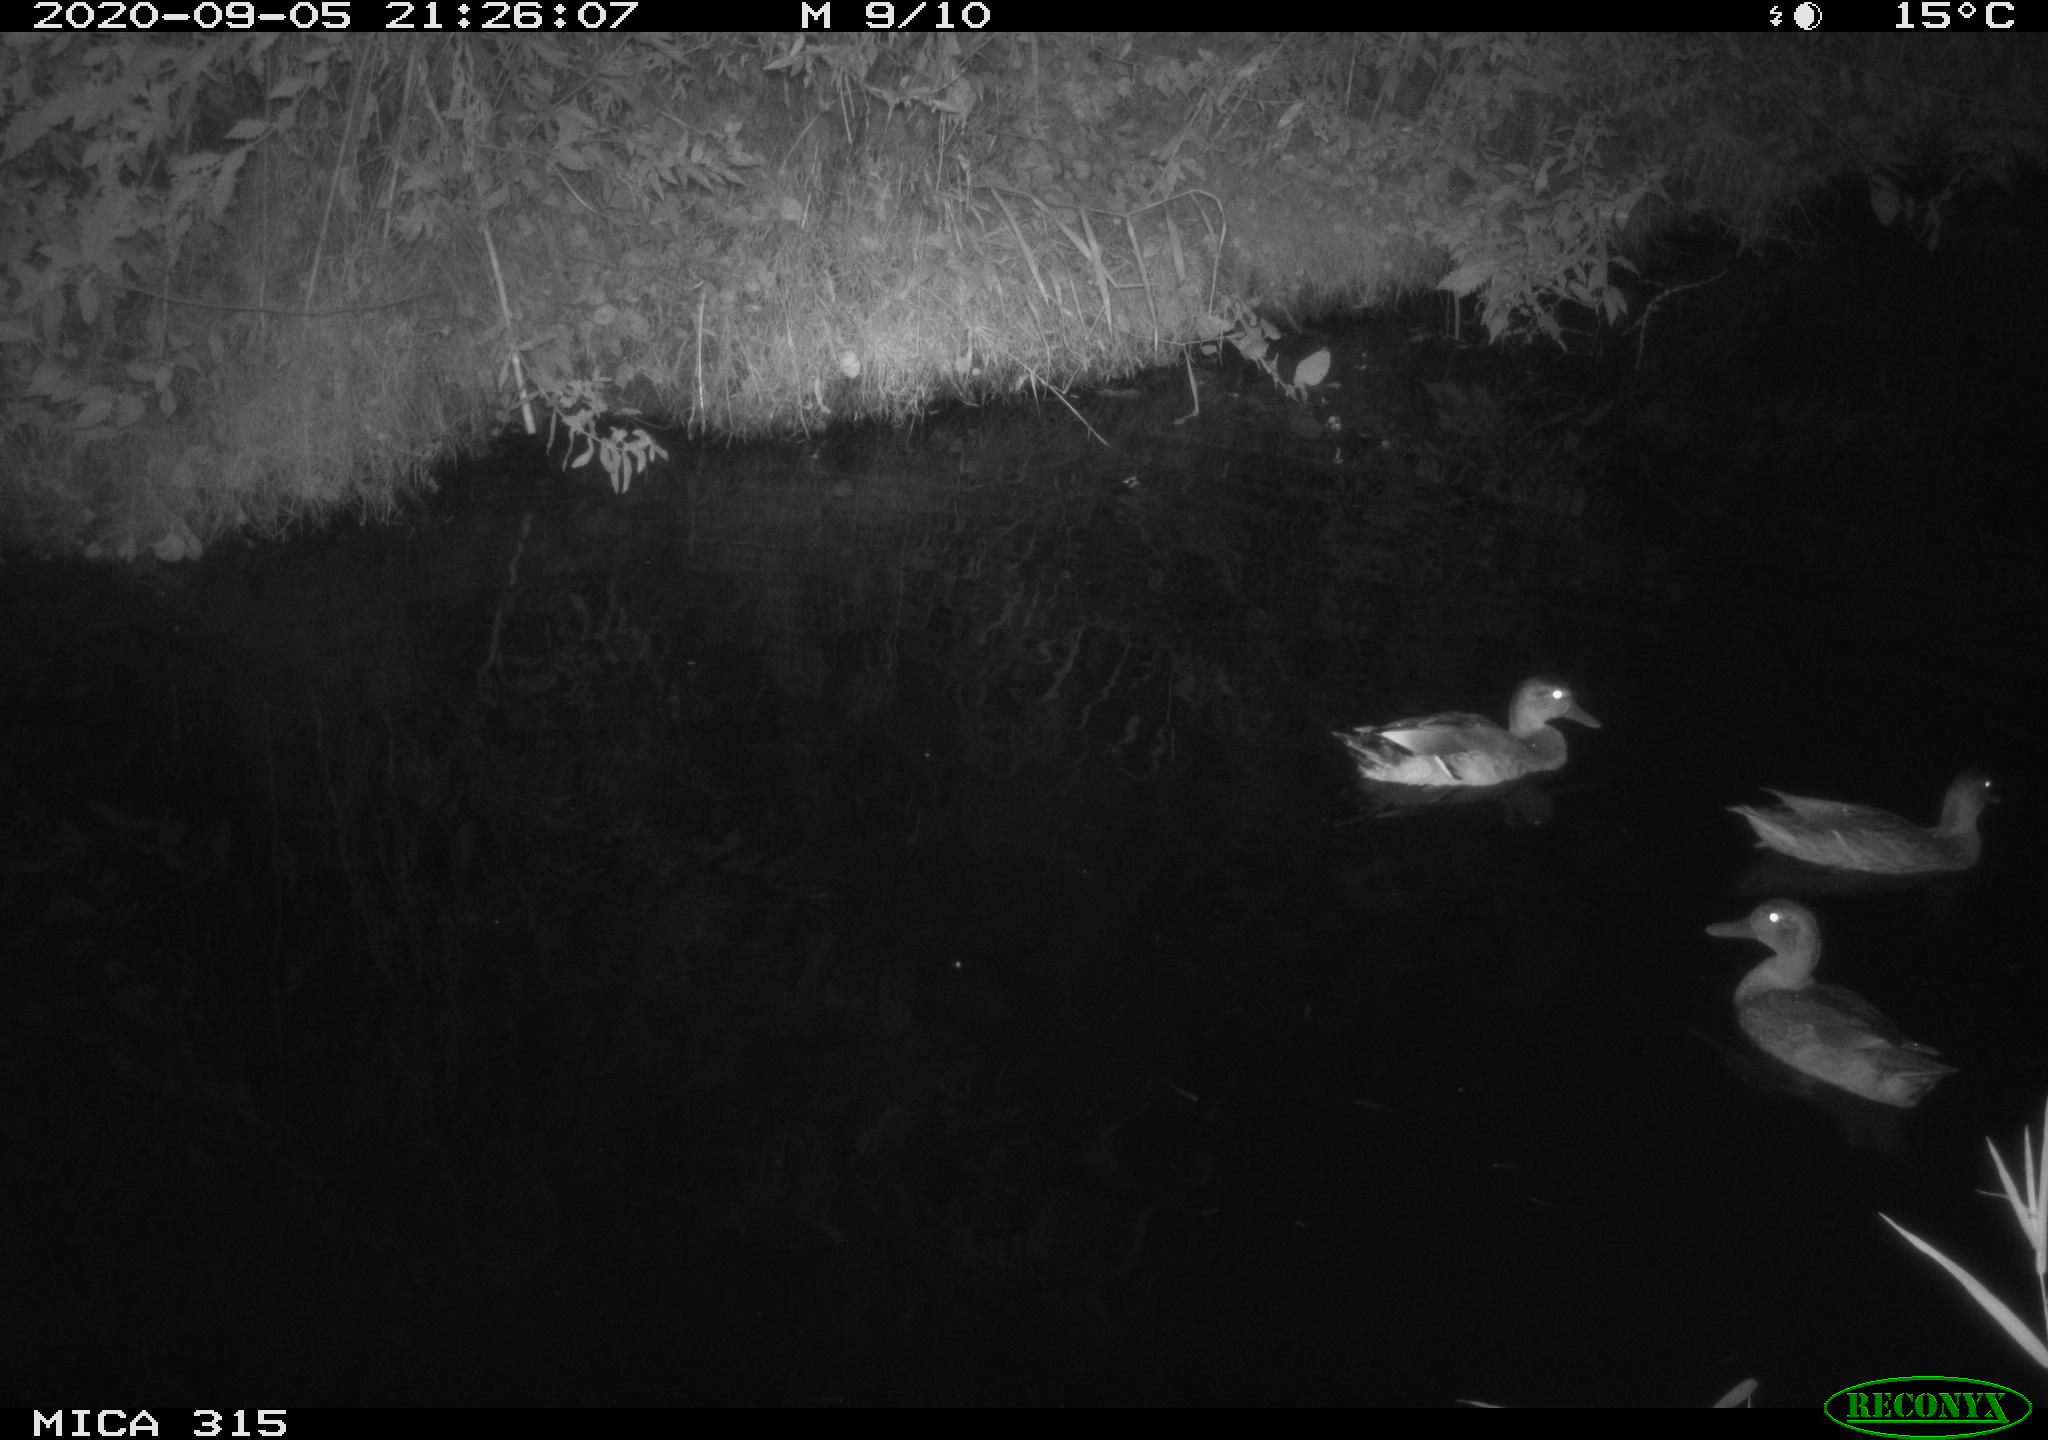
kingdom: Animalia
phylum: Chordata
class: Aves
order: Anseriformes
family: Anatidae
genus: Anas
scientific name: Anas platyrhynchos
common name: Mallard
